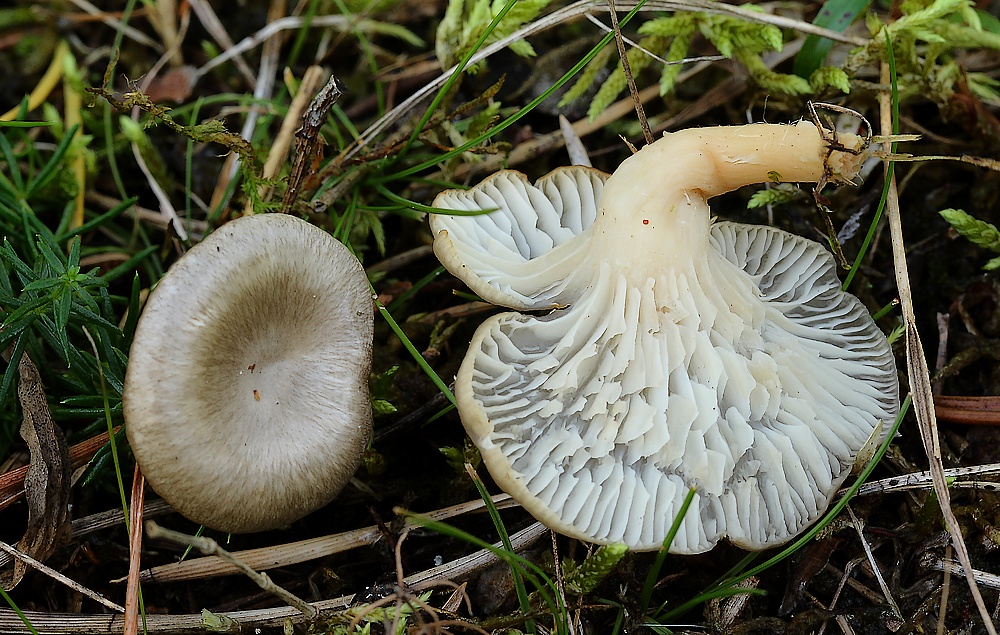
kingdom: Fungi
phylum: Basidiomycota
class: Agaricomycetes
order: Agaricales
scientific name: Agaricales
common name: champignonordenen
